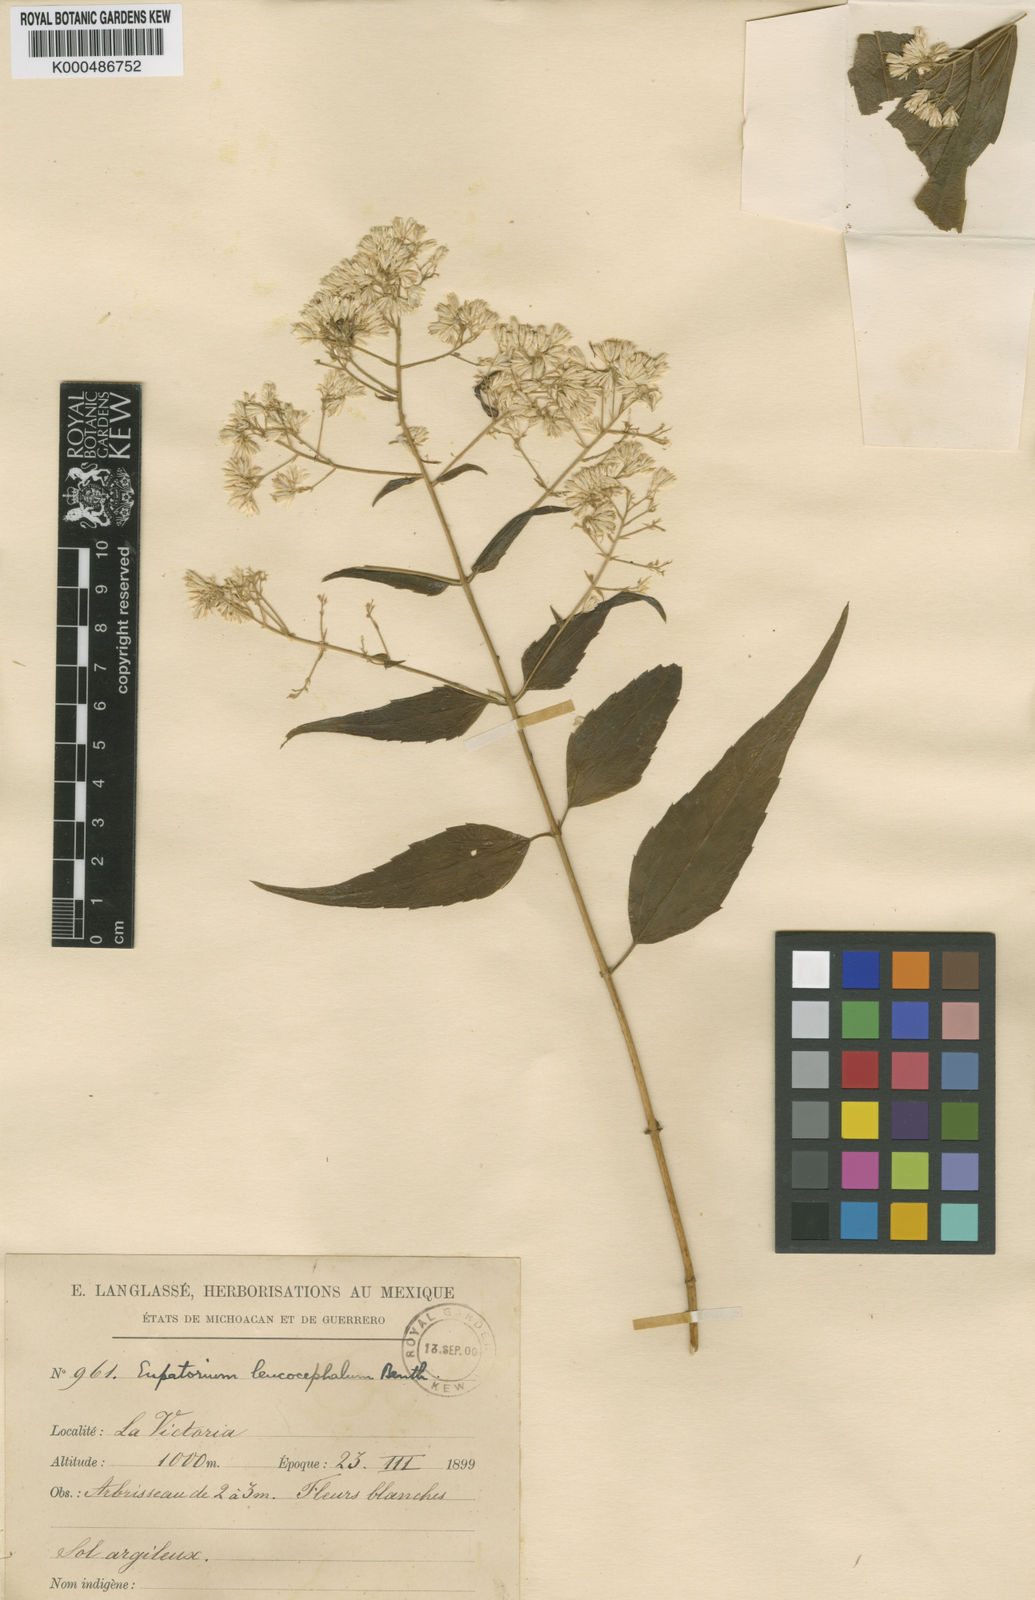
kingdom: Plantae
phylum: Tracheophyta
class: Magnoliopsida
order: Asterales
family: Asteraceae
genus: Fleischmanniopsis
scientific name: Fleischmanniopsis leucocephala
